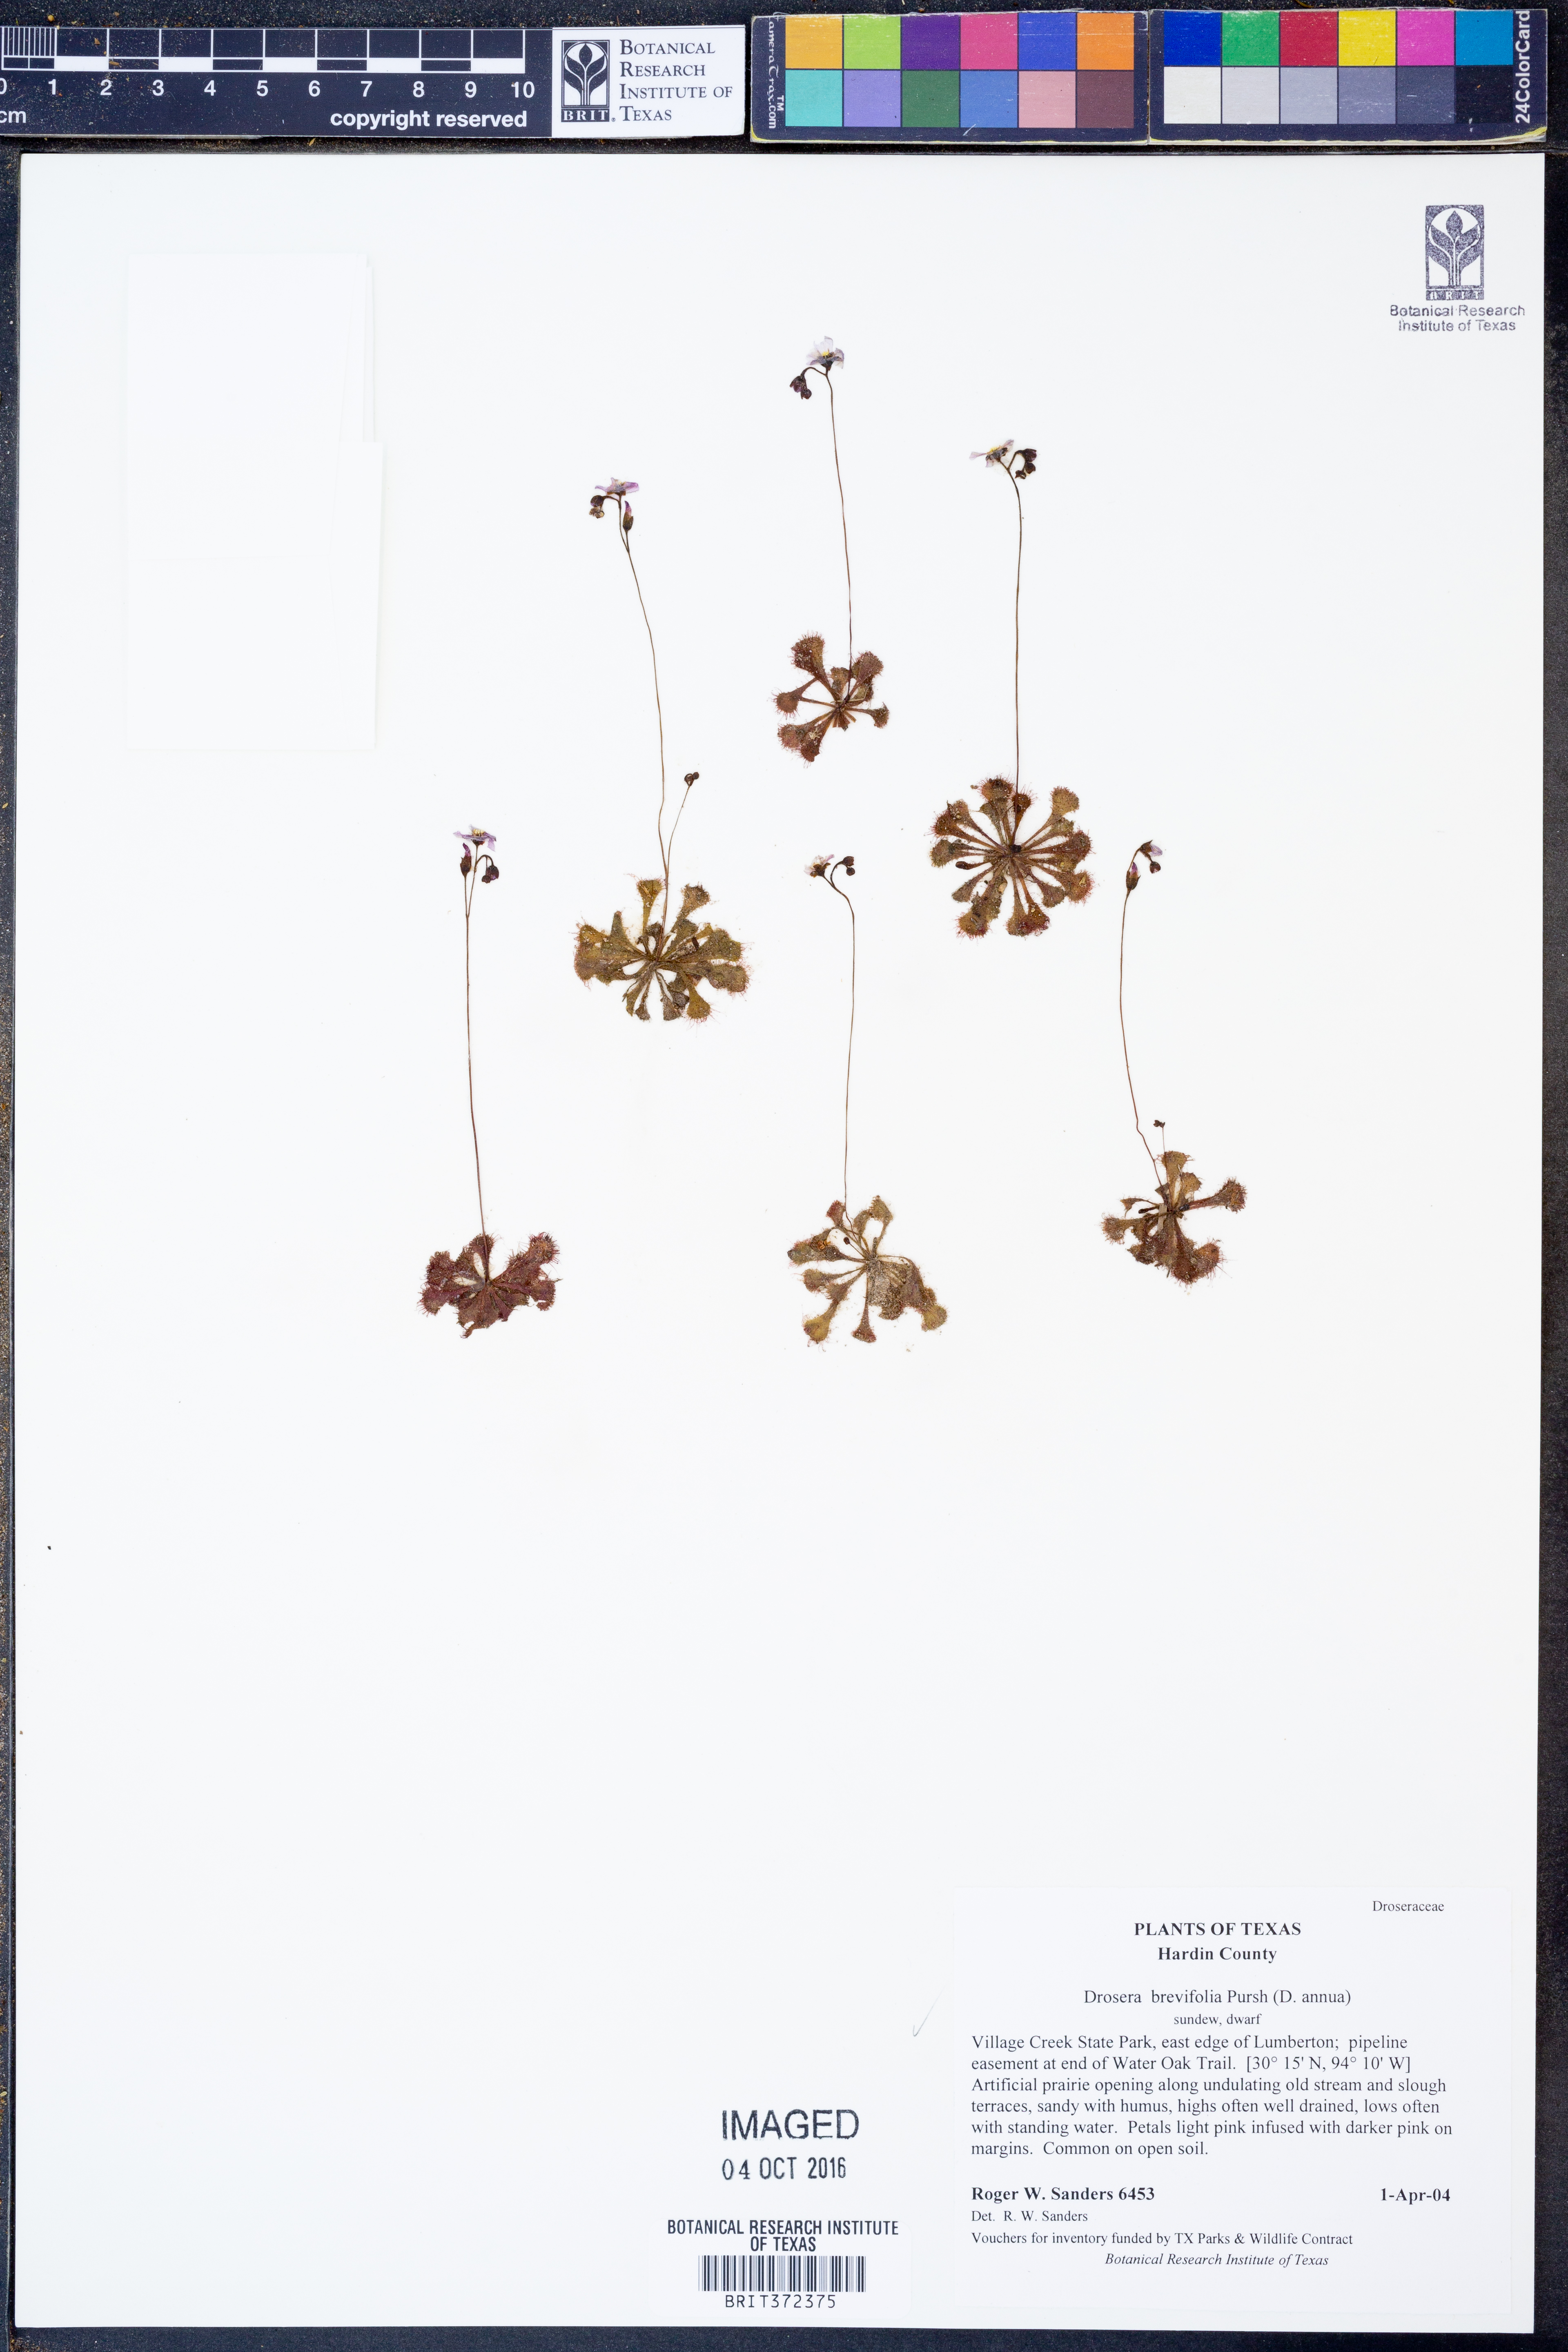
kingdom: Plantae
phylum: Tracheophyta
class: Magnoliopsida
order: Caryophyllales
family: Droseraceae
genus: Drosera
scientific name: Drosera brevifolia
